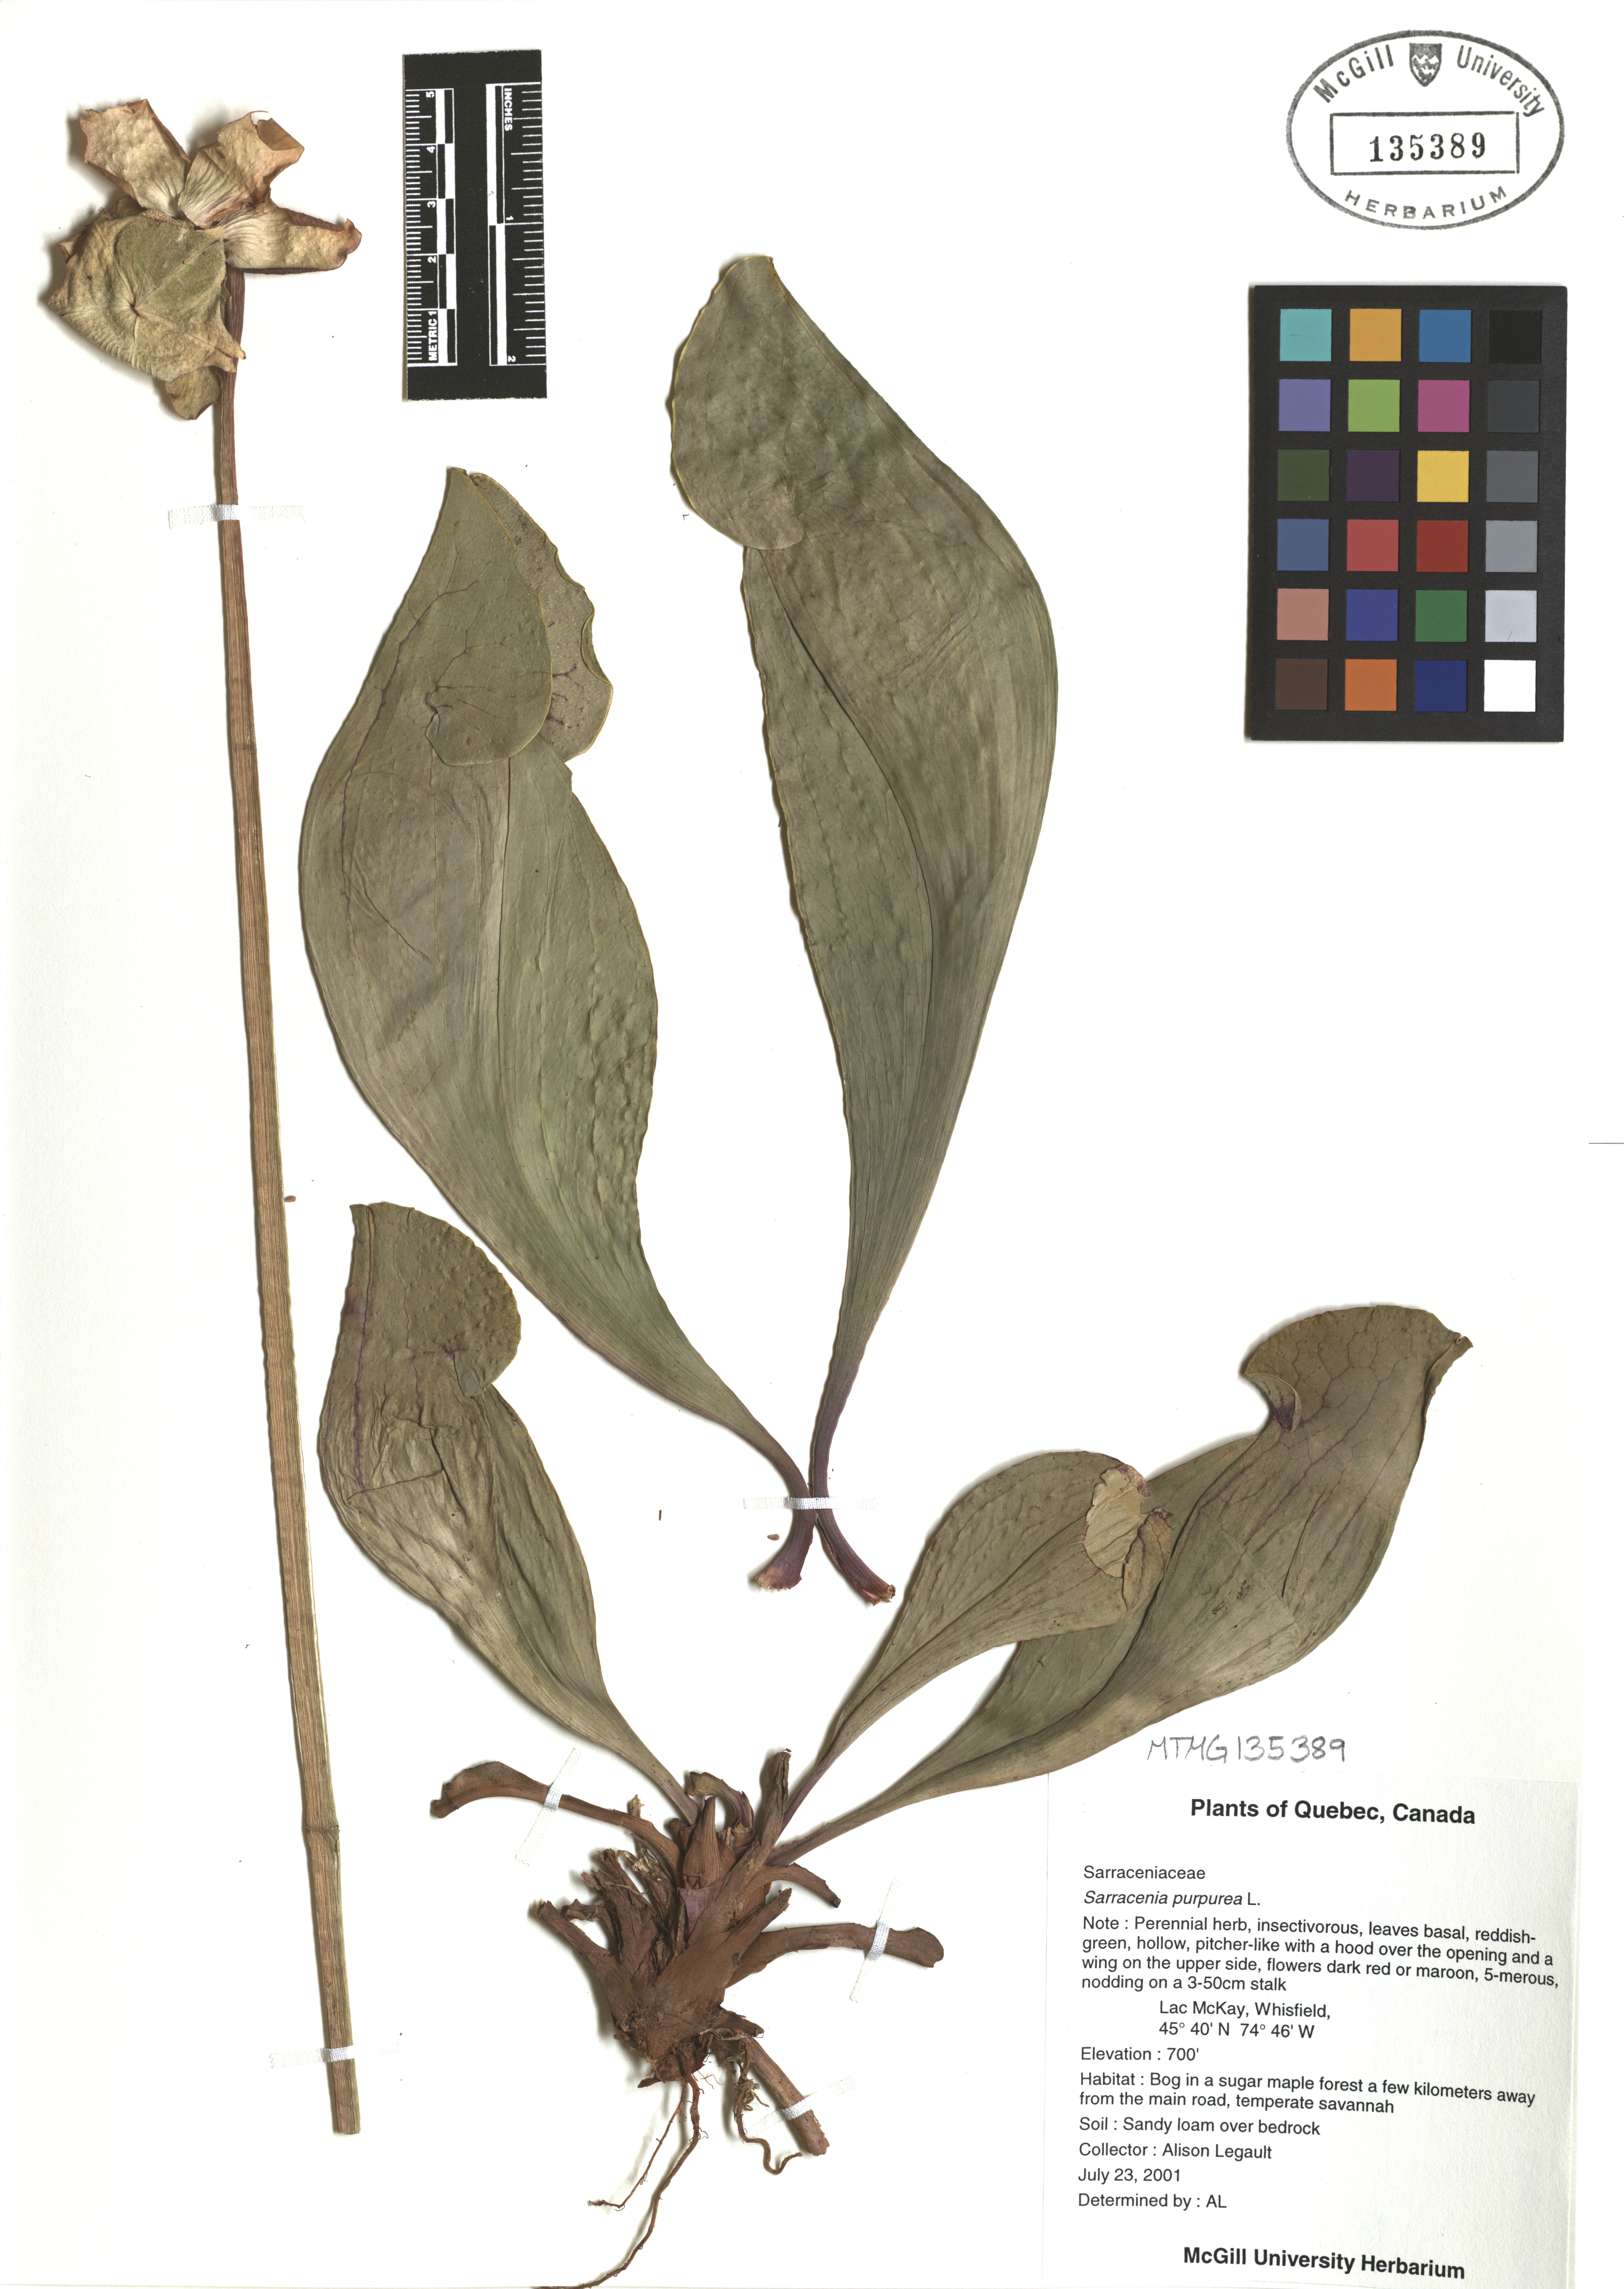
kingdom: Plantae
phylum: Tracheophyta
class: Magnoliopsida
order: Ericales
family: Sarraceniaceae
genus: Sarracenia
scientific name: Sarracenia purpurea
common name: Pitcherplant
